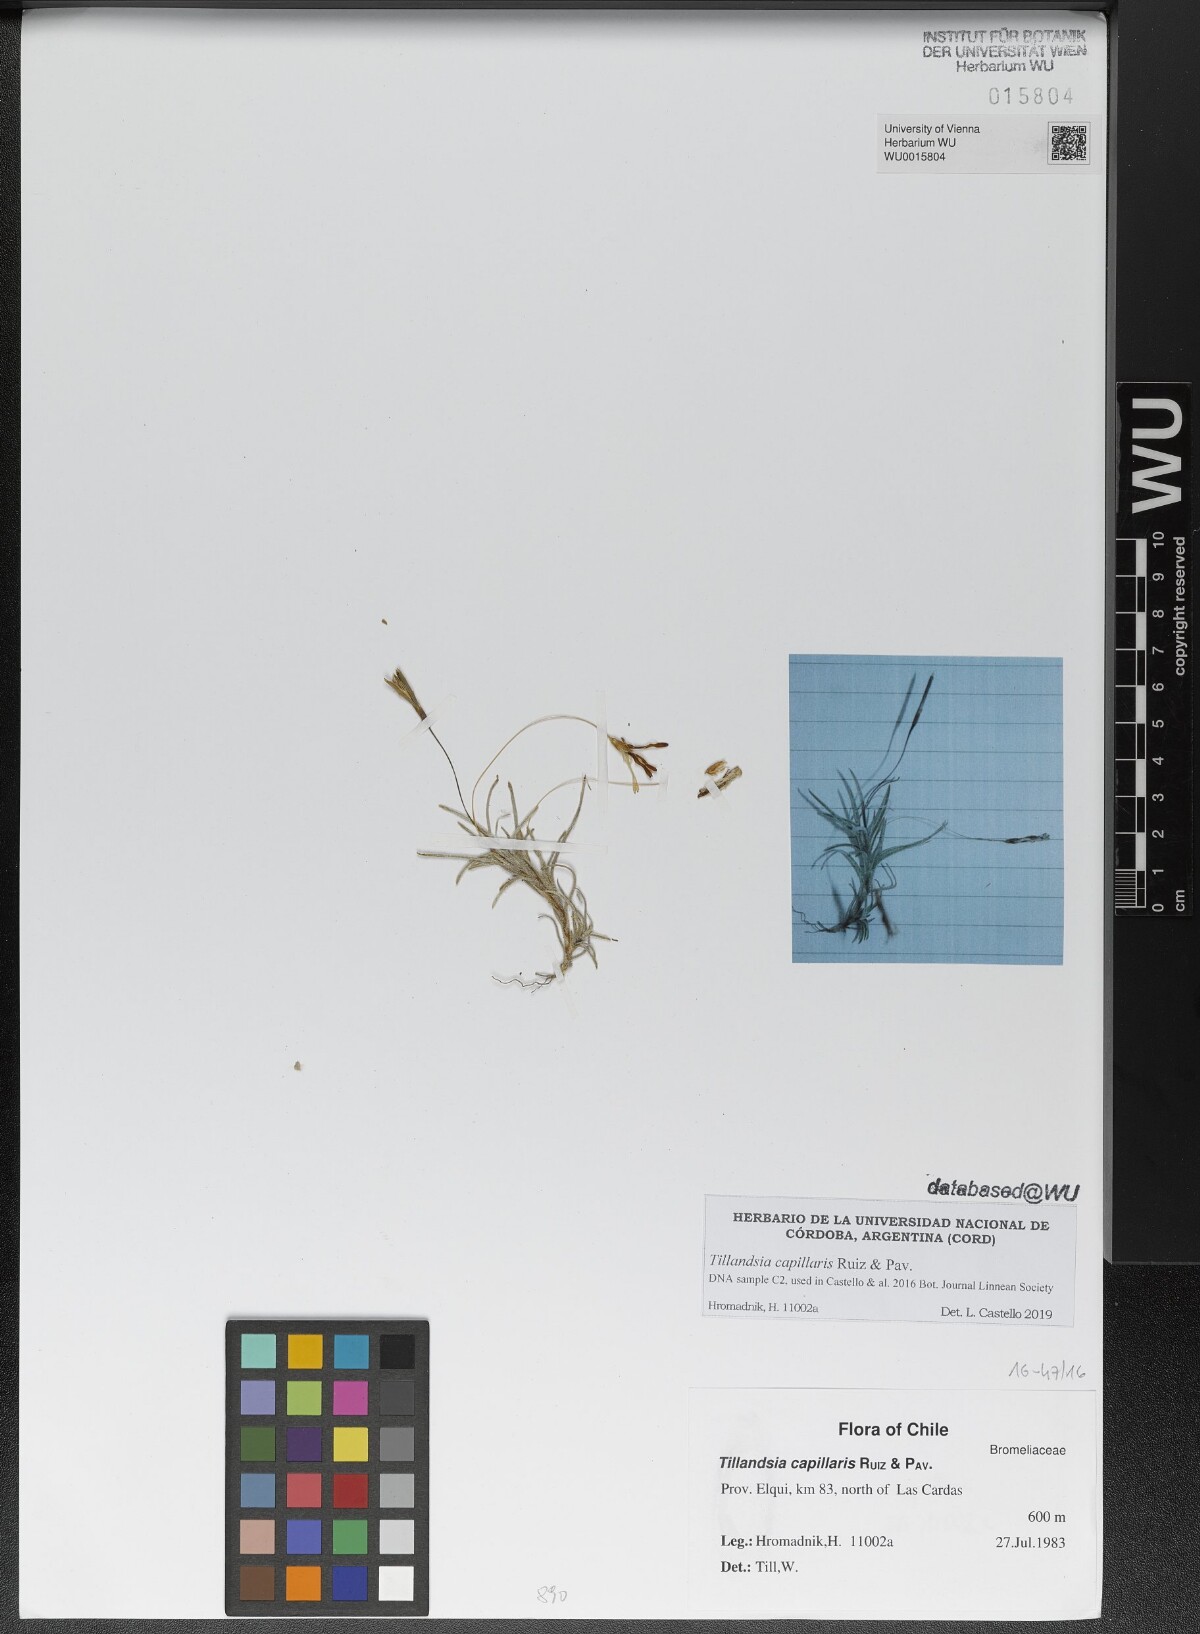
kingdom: Plantae
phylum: Tracheophyta
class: Liliopsida
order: Poales
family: Bromeliaceae
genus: Tillandsia
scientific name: Tillandsia capillaris
